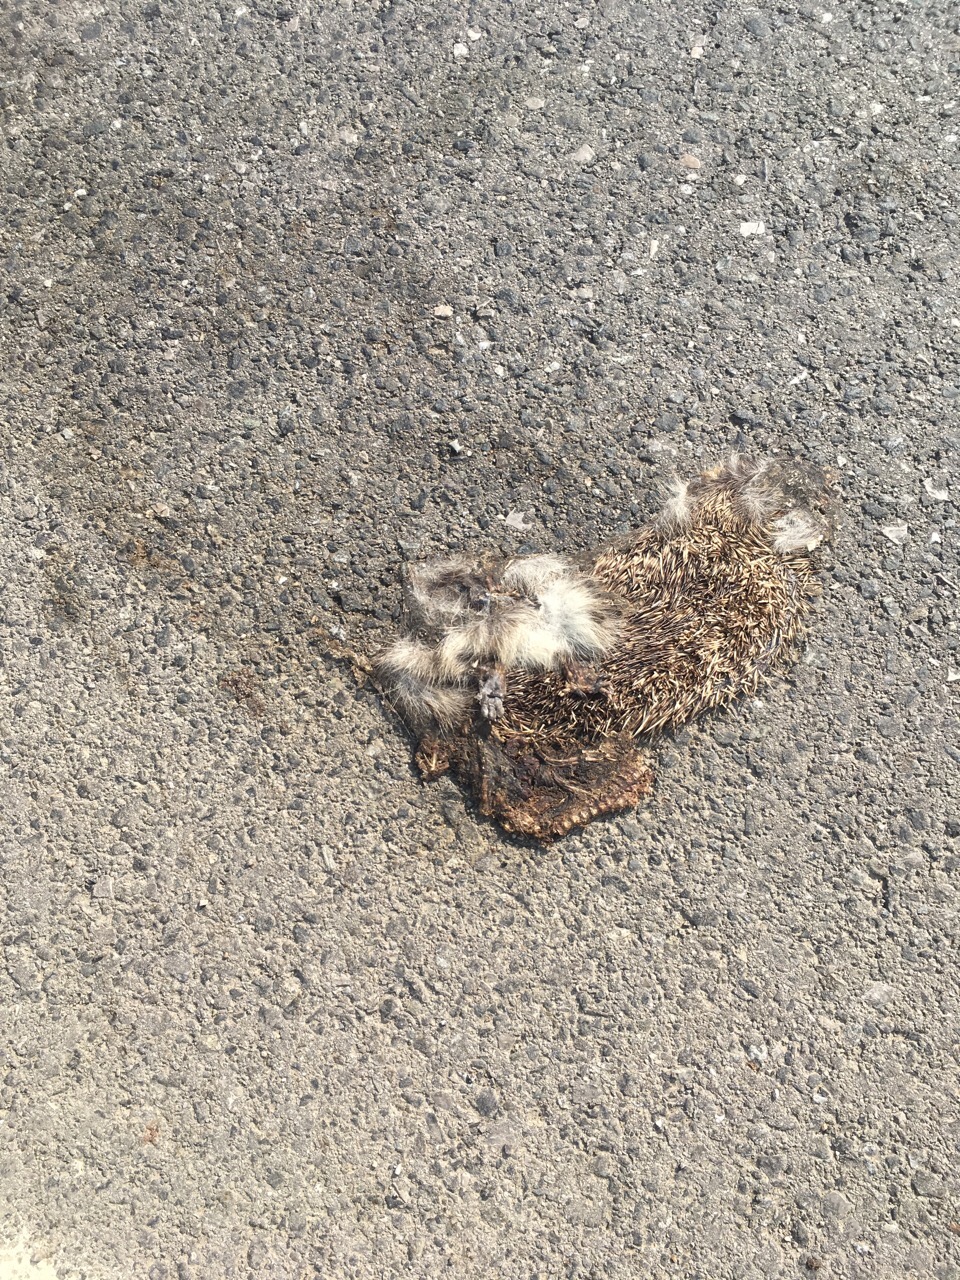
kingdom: Animalia
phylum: Chordata
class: Mammalia
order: Erinaceomorpha
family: Erinaceidae
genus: Erinaceus
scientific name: Erinaceus
